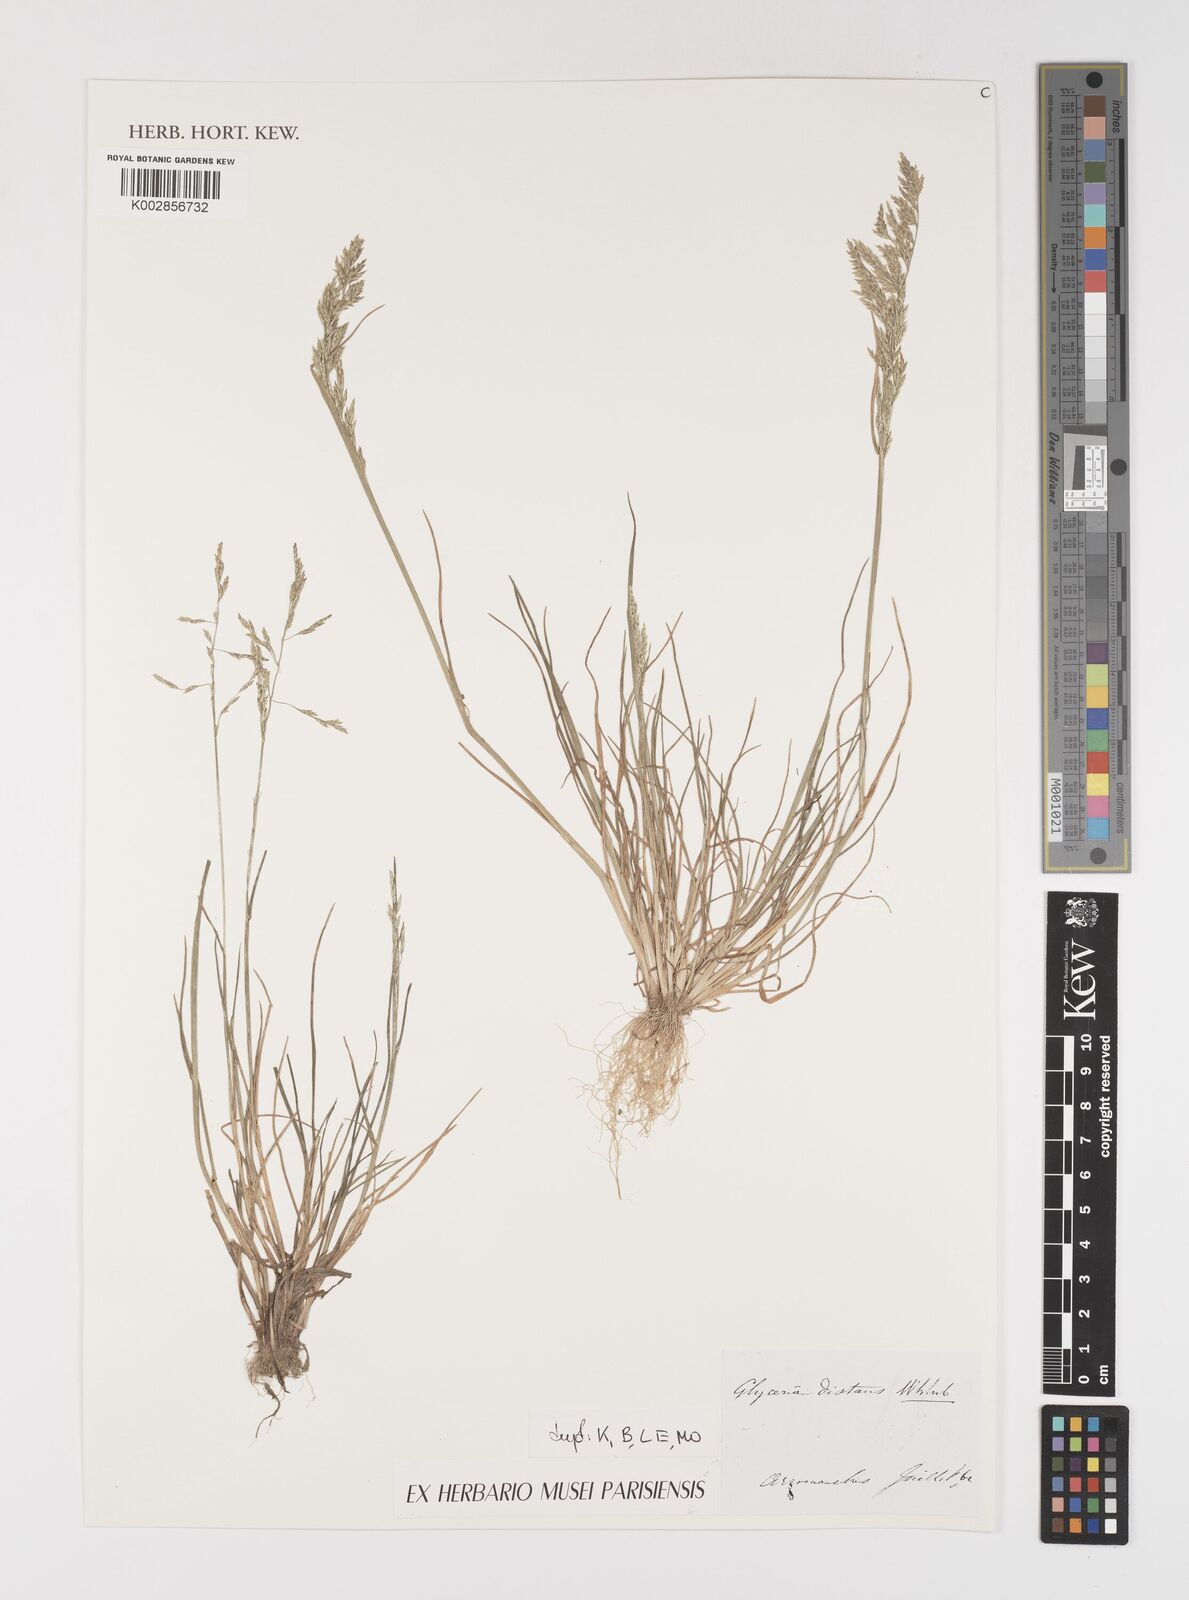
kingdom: Plantae
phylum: Tracheophyta
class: Liliopsida
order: Poales
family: Poaceae
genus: Puccinellia
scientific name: Puccinellia
